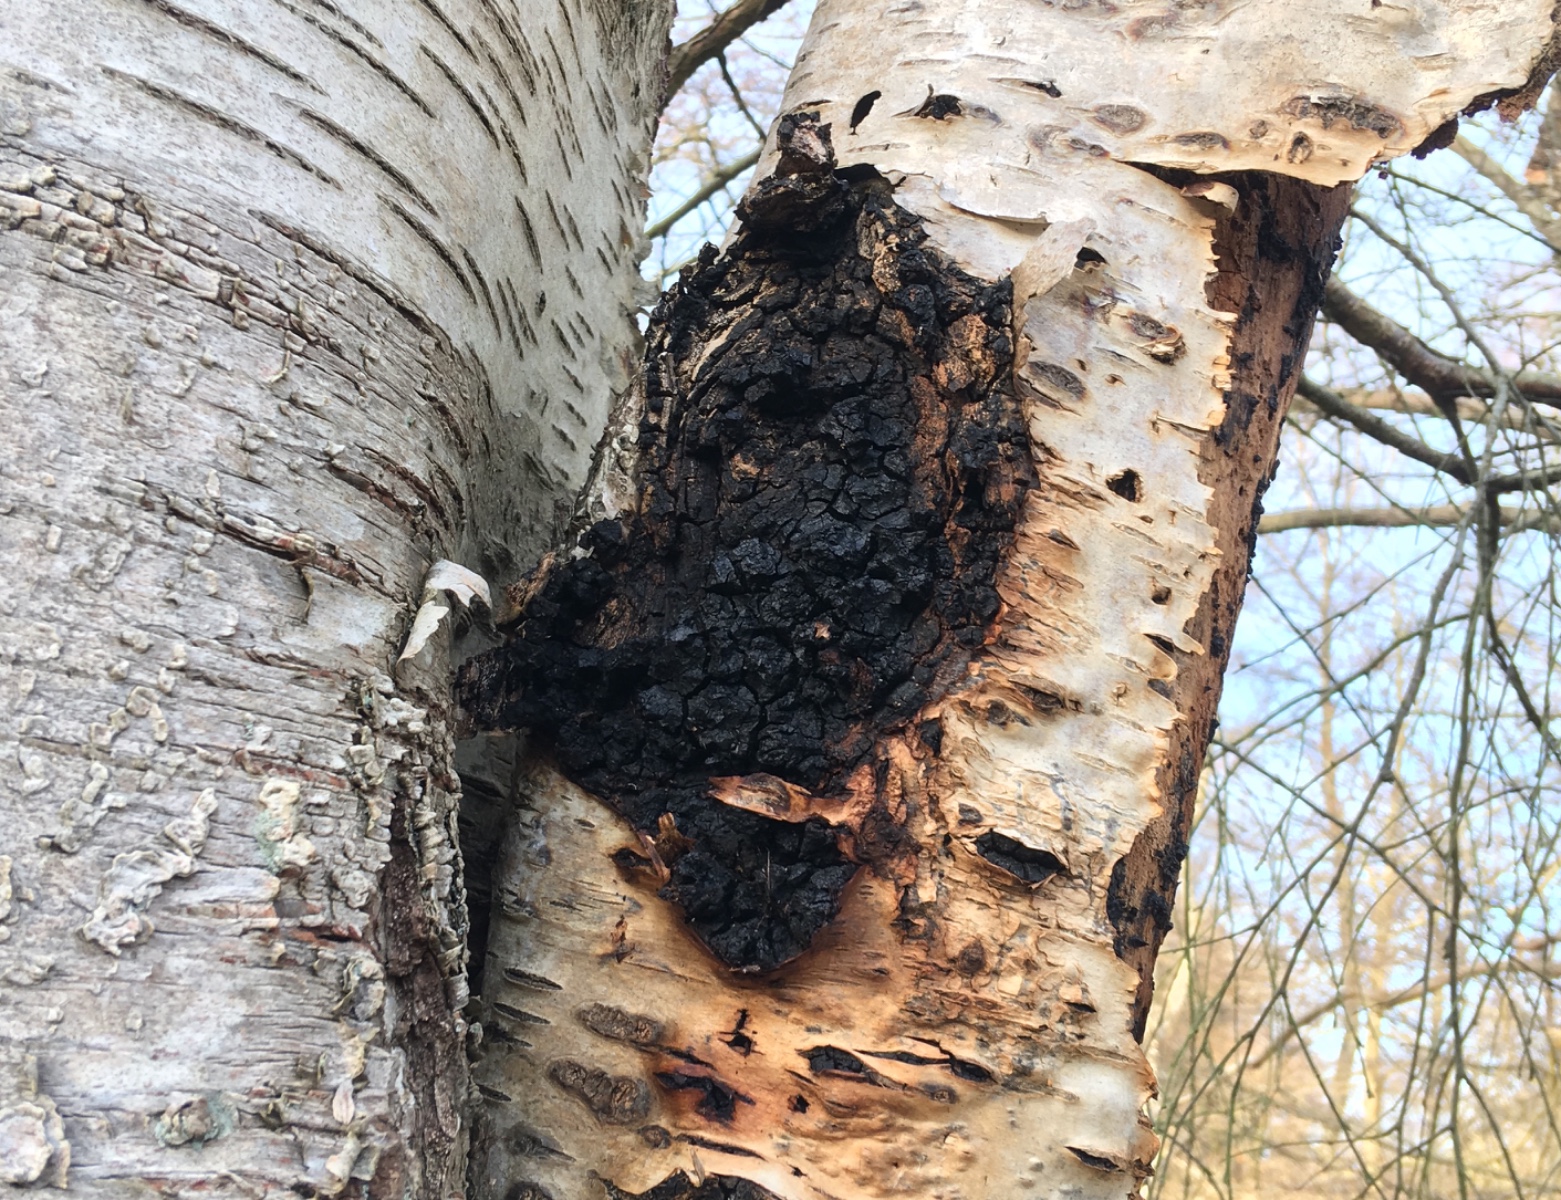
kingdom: Fungi
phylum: Basidiomycota
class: Agaricomycetes
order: Hymenochaetales
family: Hymenochaetaceae
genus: Inonotus
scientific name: Inonotus obliquus
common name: birke-spejlporesvamp
